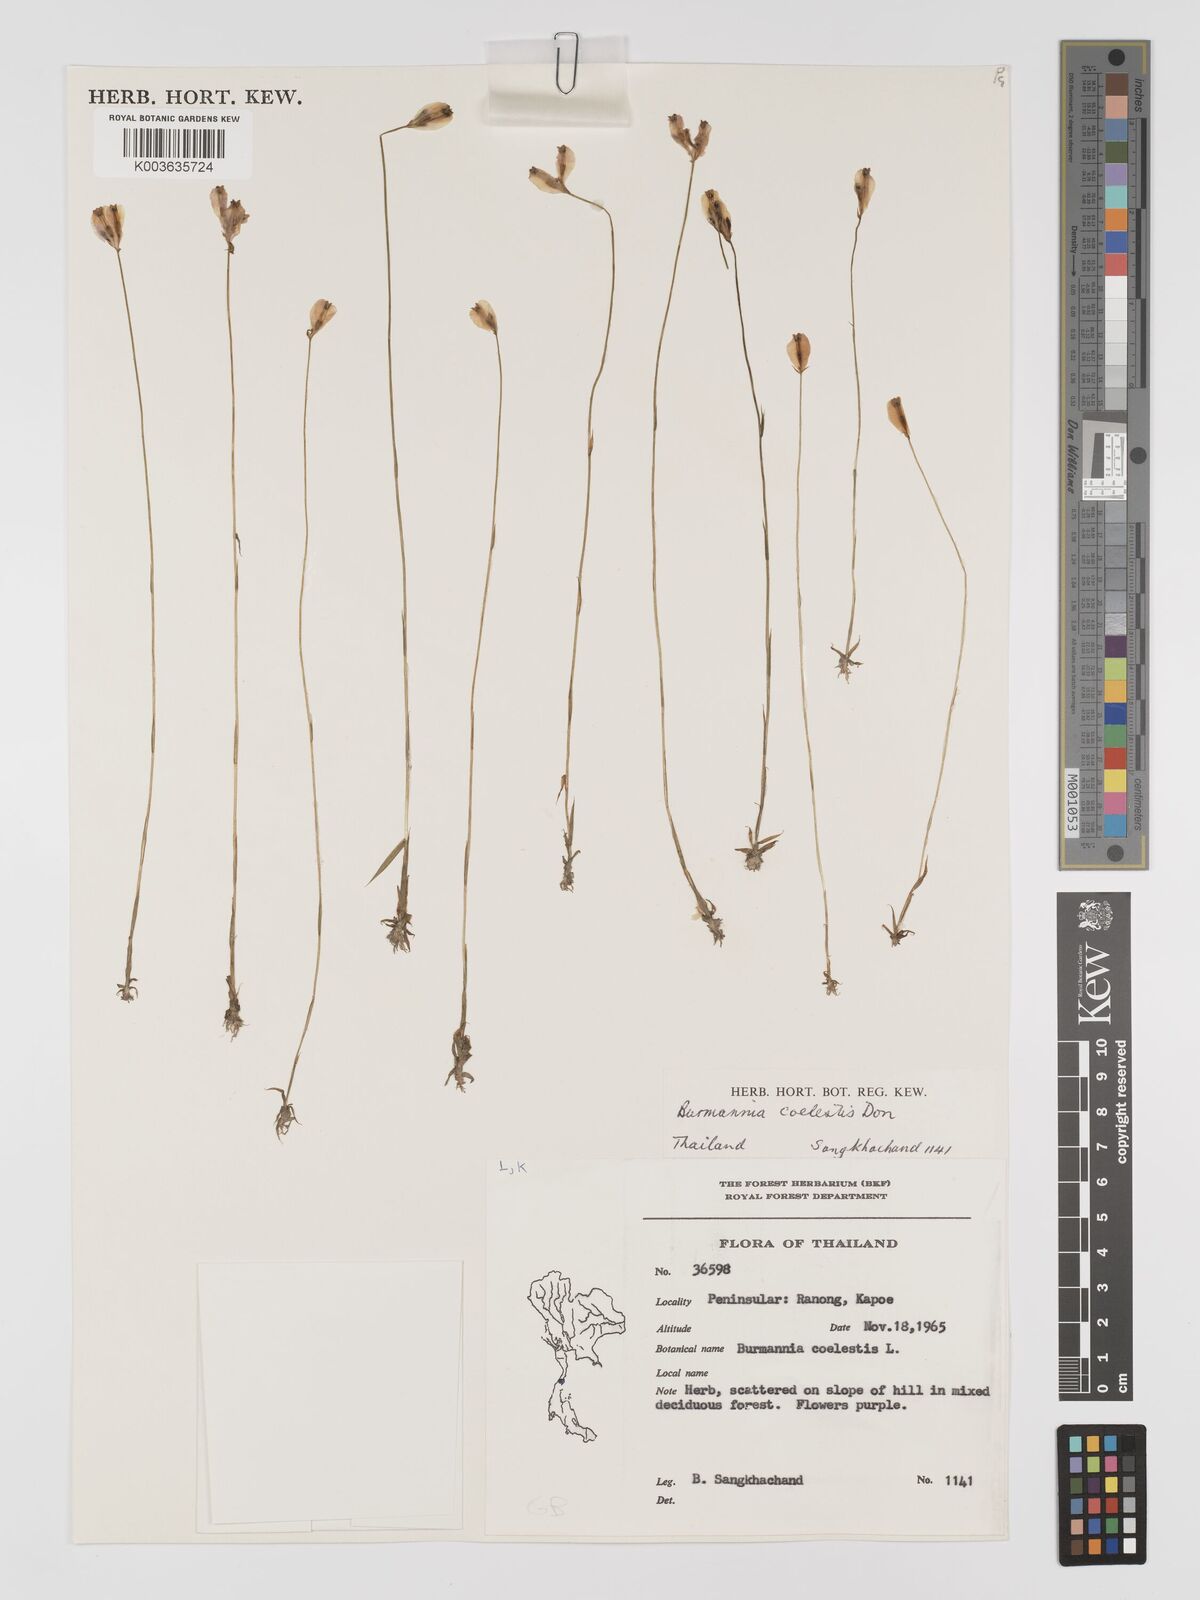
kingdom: Plantae
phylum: Tracheophyta
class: Liliopsida
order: Dioscoreales
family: Burmanniaceae
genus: Burmannia
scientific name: Burmannia coelestis
